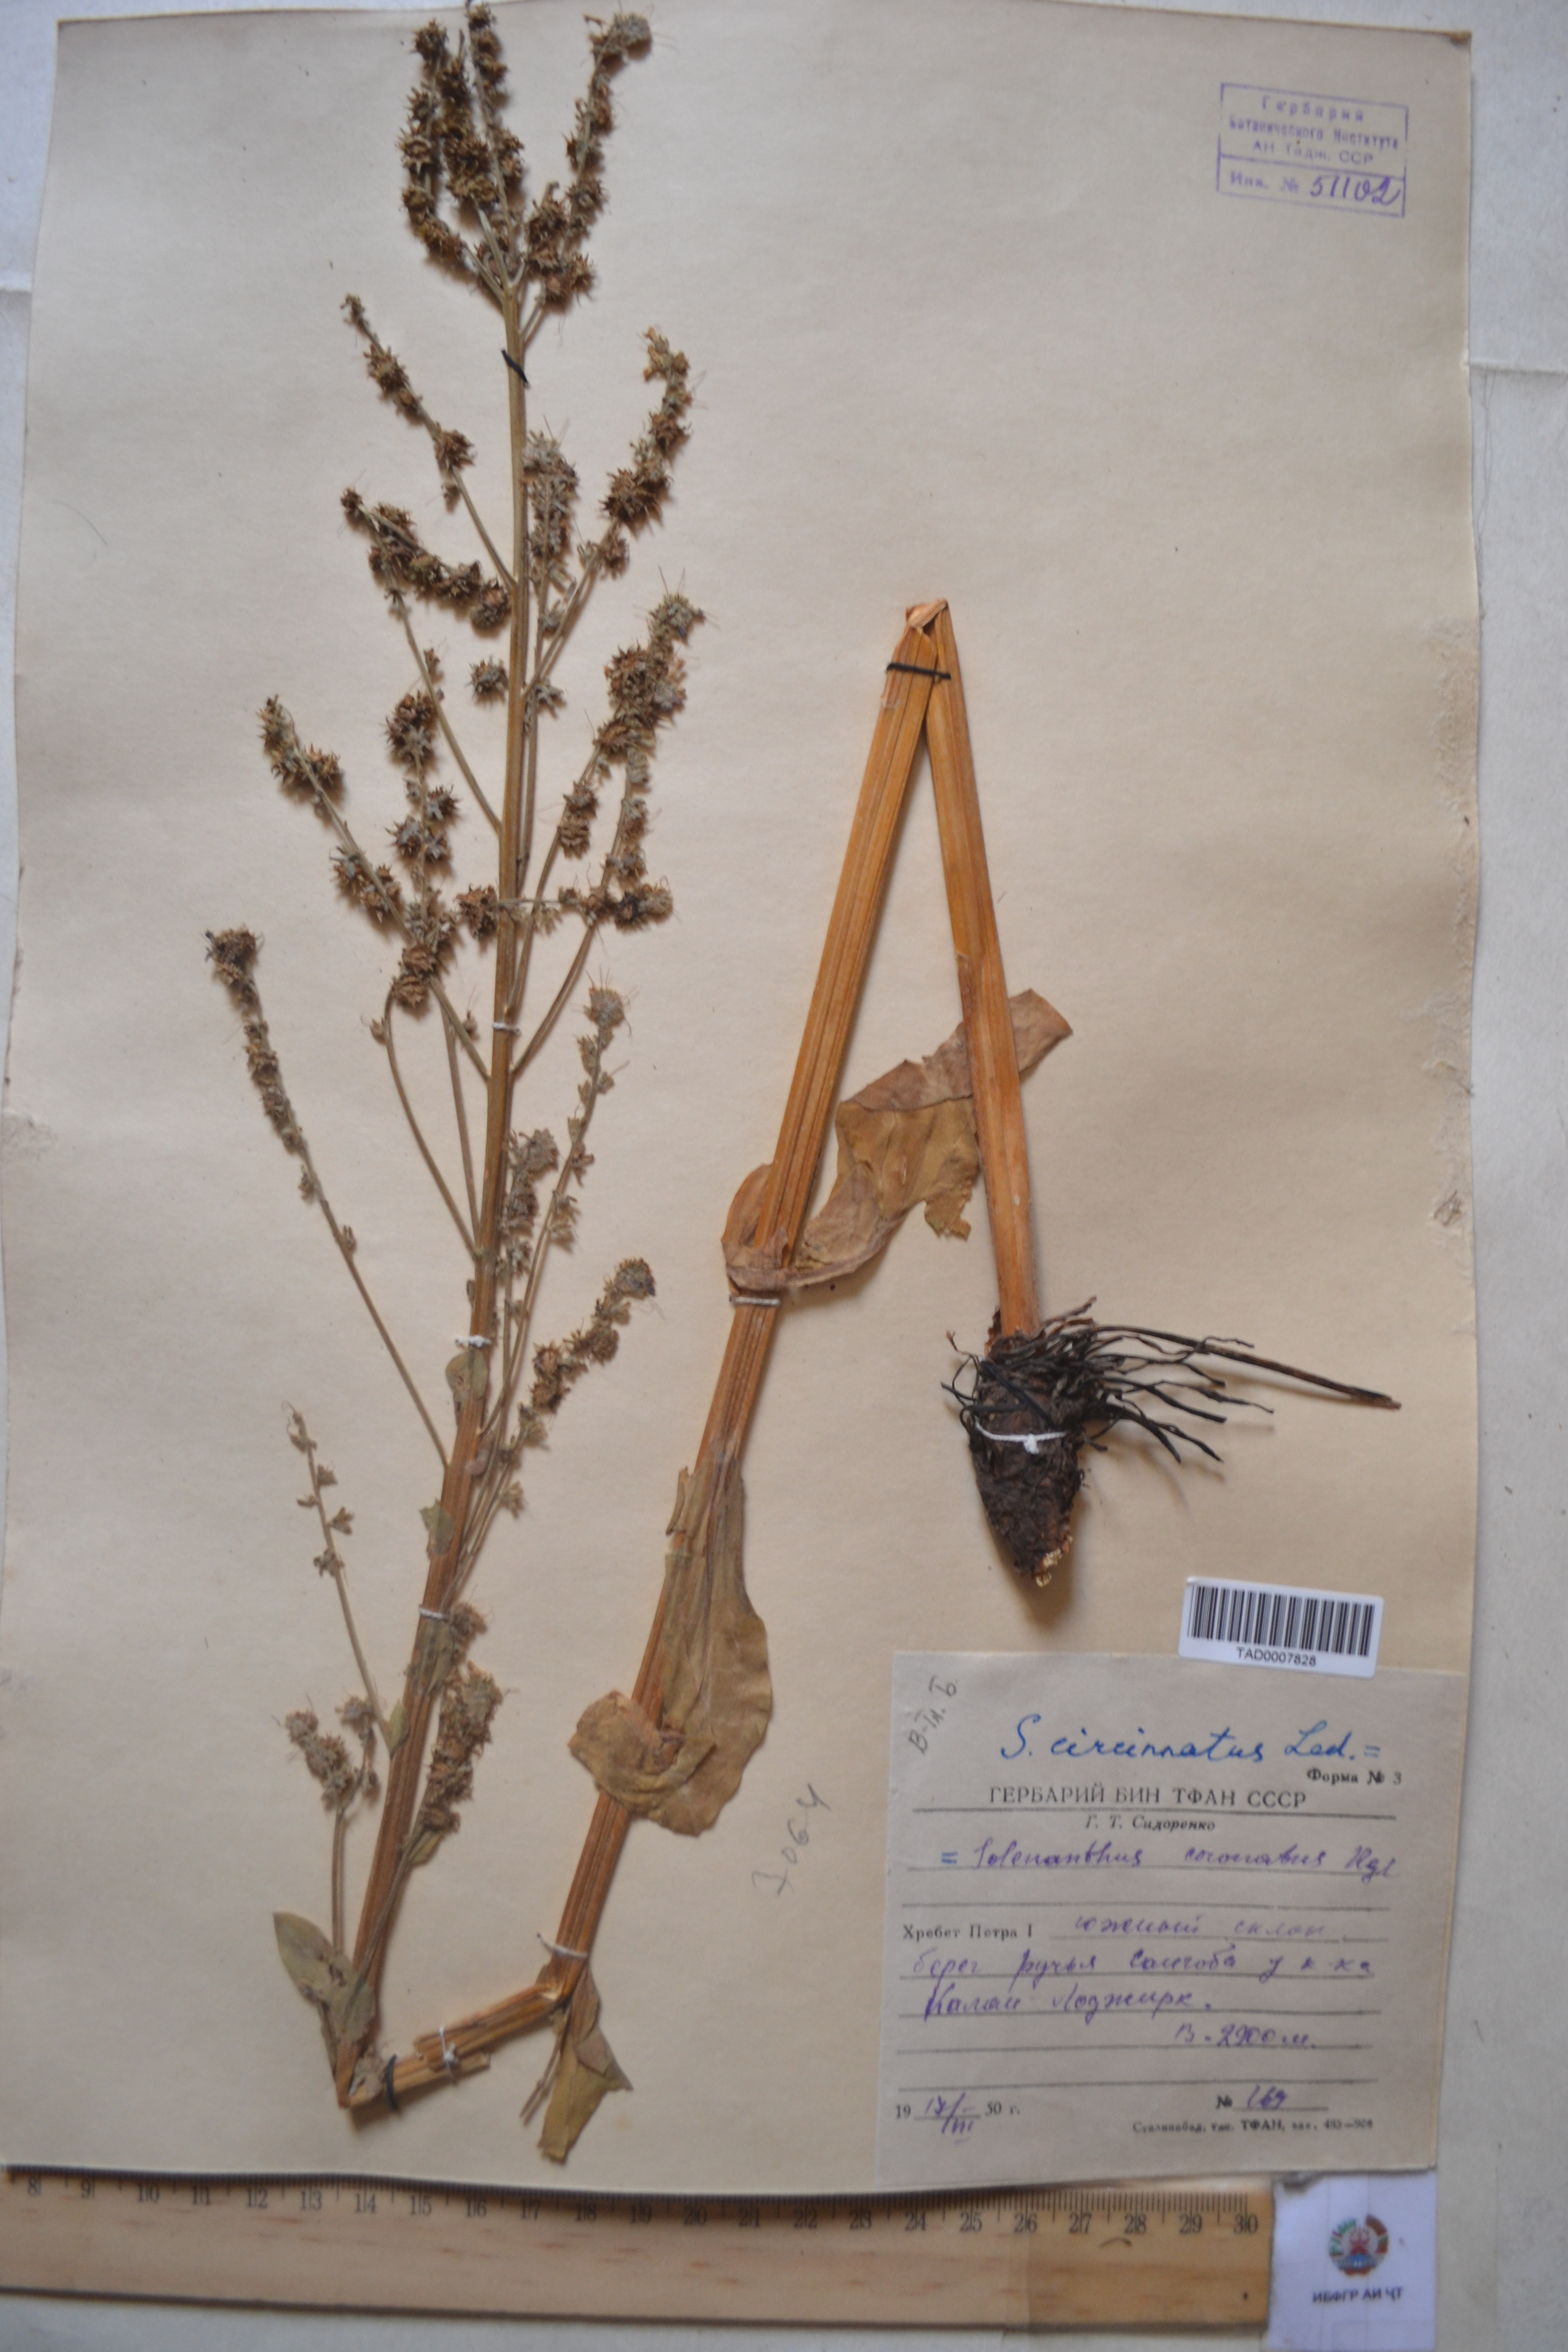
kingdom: Plantae
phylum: Tracheophyta
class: Magnoliopsida
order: Boraginales
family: Boraginaceae
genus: Solenanthus
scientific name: Solenanthus circinnatus
